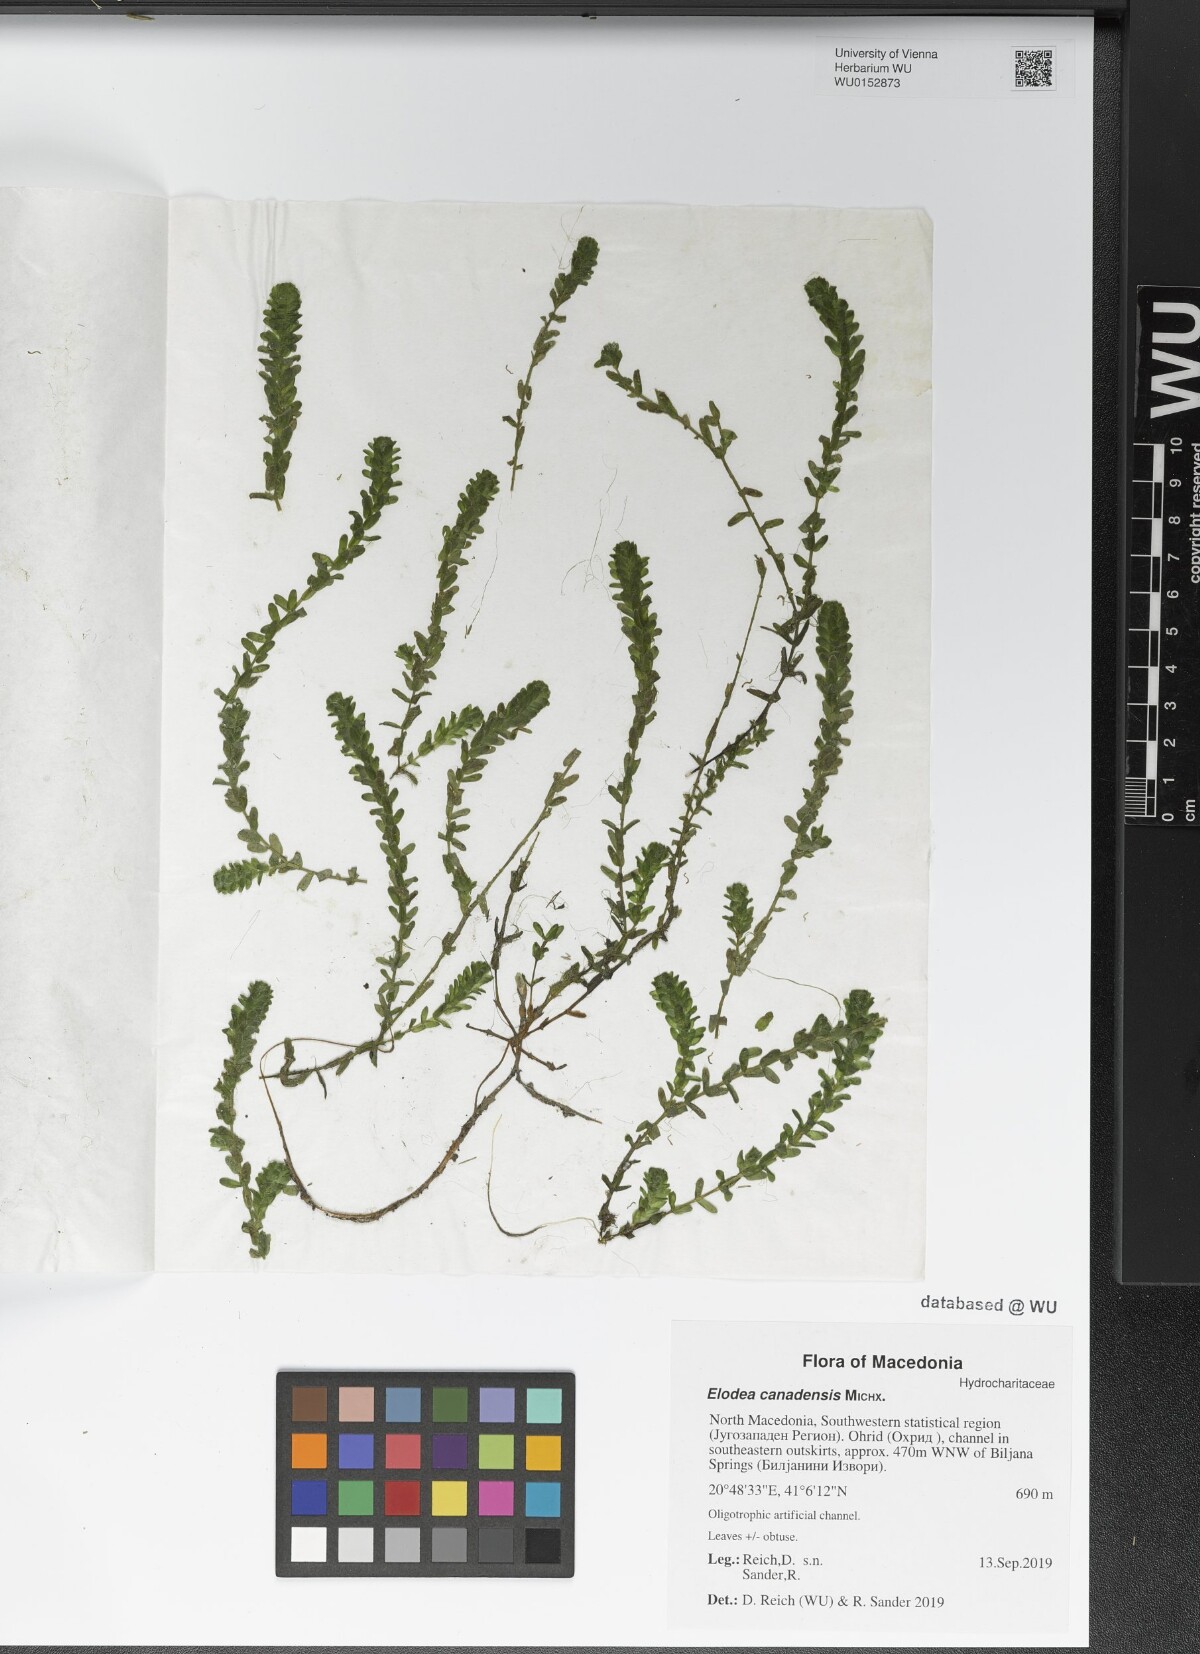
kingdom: Plantae
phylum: Tracheophyta
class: Liliopsida
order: Alismatales
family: Hydrocharitaceae
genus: Elodea
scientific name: Elodea canadensis
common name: Canadian waterweed
